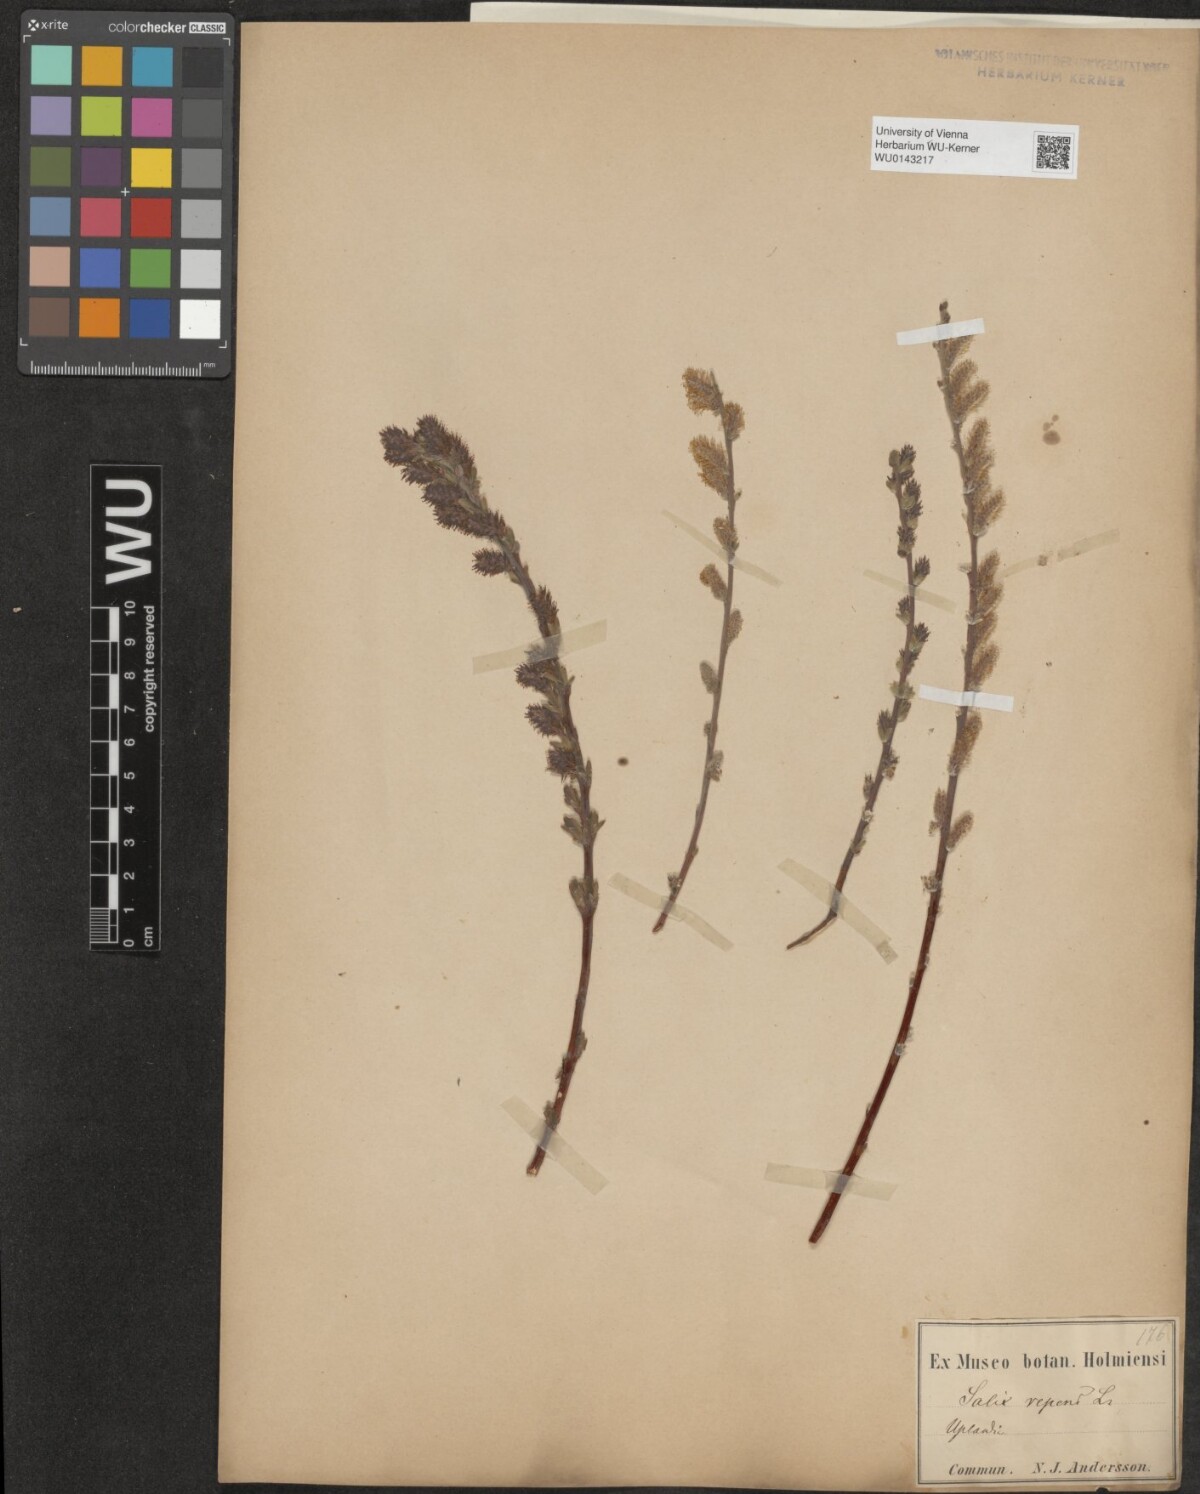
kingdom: Plantae
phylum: Tracheophyta
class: Magnoliopsida
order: Malpighiales
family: Salicaceae
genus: Salix
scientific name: Salix repens
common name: Creeping willow
